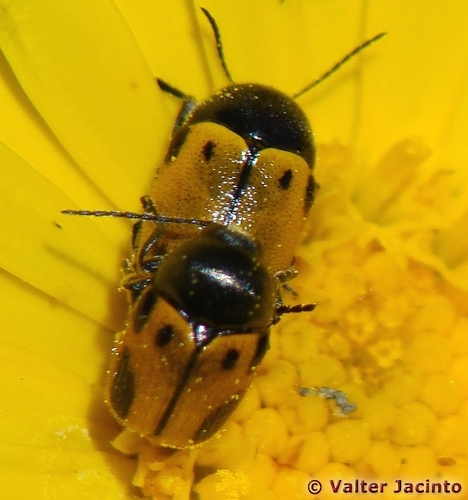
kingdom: Animalia
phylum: Arthropoda
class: Insecta
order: Coleoptera
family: Chrysomelidae
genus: Cryptocephalus
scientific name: Cryptocephalus rugicollis
